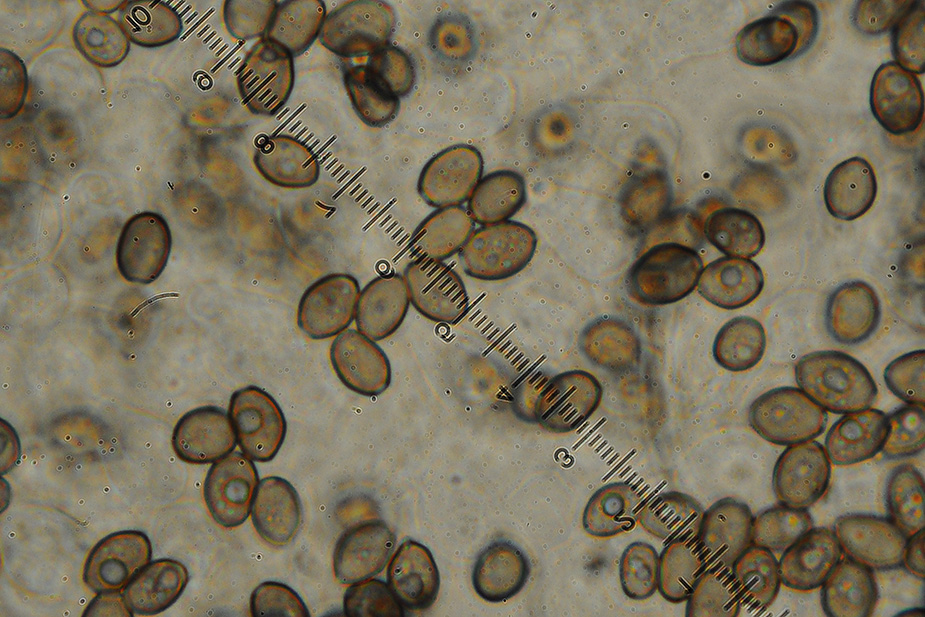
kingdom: Fungi
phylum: Basidiomycota
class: Agaricomycetes
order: Agaricales
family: Psathyrellaceae
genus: Coprinopsis
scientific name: Coprinopsis pseudofriesii
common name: gulfnugget blækhat
